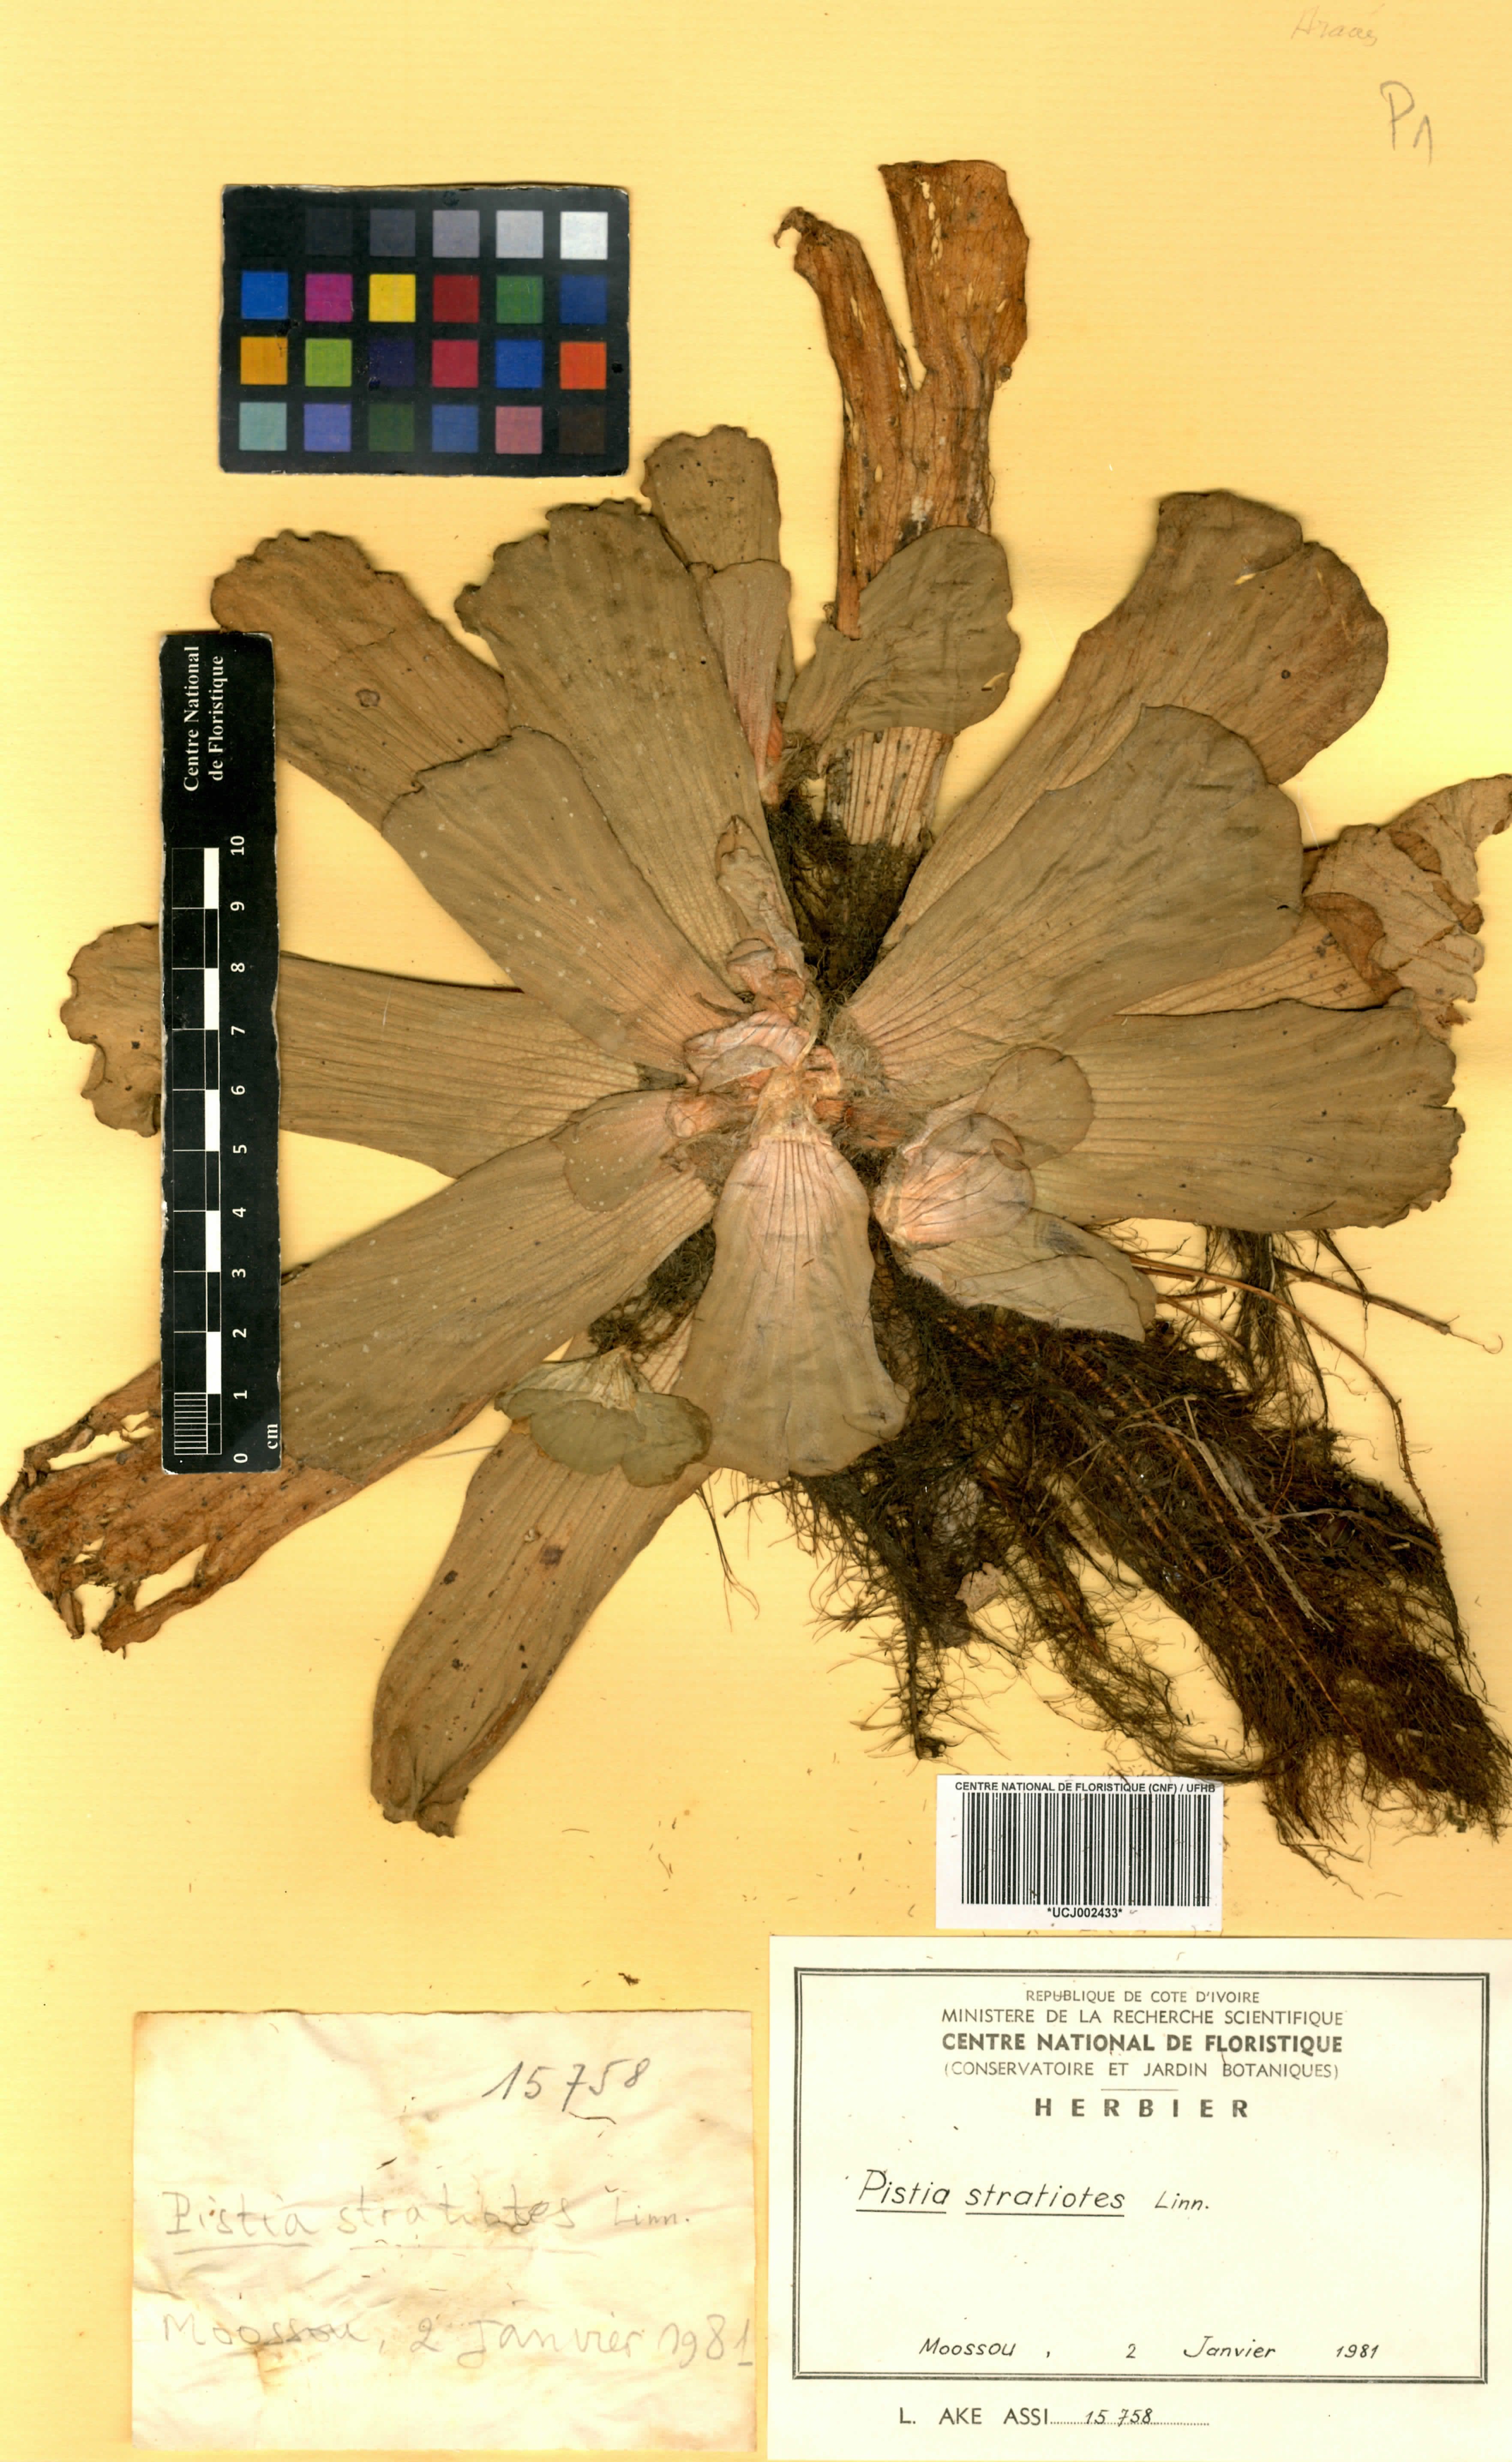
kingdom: Plantae
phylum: Tracheophyta
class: Liliopsida
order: Alismatales
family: Araceae
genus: Pistia
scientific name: Pistia stratiotes
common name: Water lettuce
